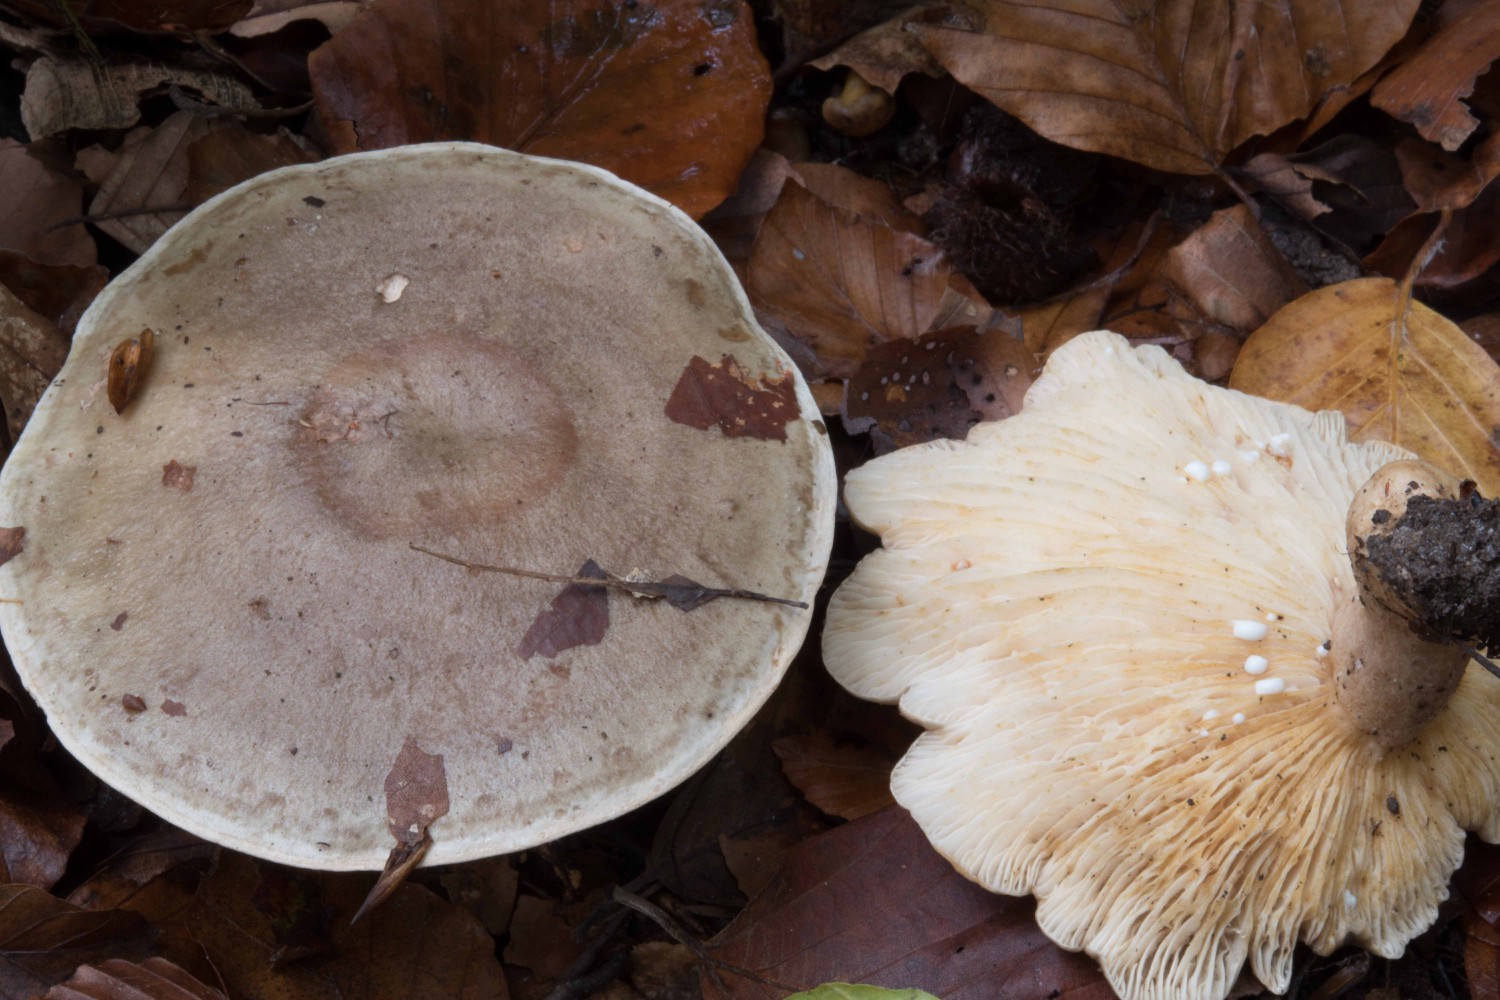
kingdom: Fungi
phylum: Basidiomycota
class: Agaricomycetes
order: Russulales
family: Russulaceae
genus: Lactarius
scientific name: Lactarius fluens
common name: lysrandet mælkehat
